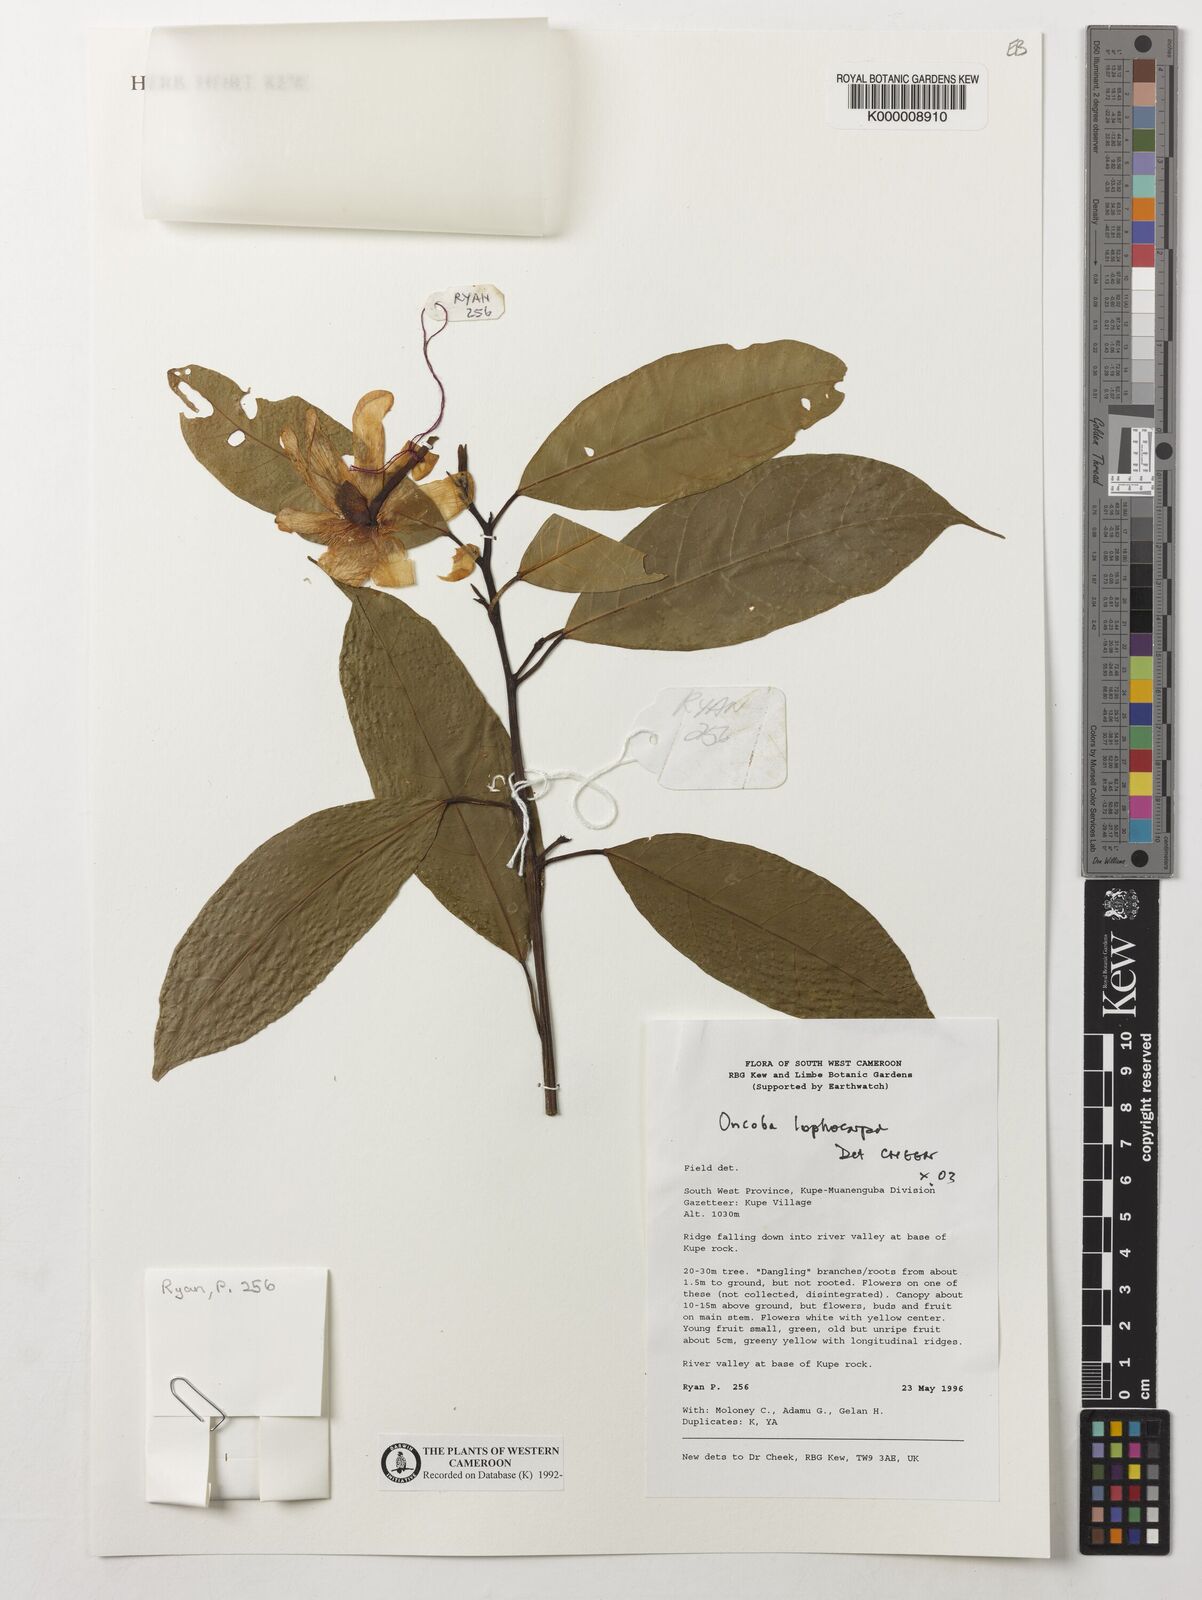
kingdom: Plantae
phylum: Tracheophyta
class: Magnoliopsida
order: Malpighiales
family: Achariaceae
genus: Caloncoba
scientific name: Caloncoba lophocarpa
